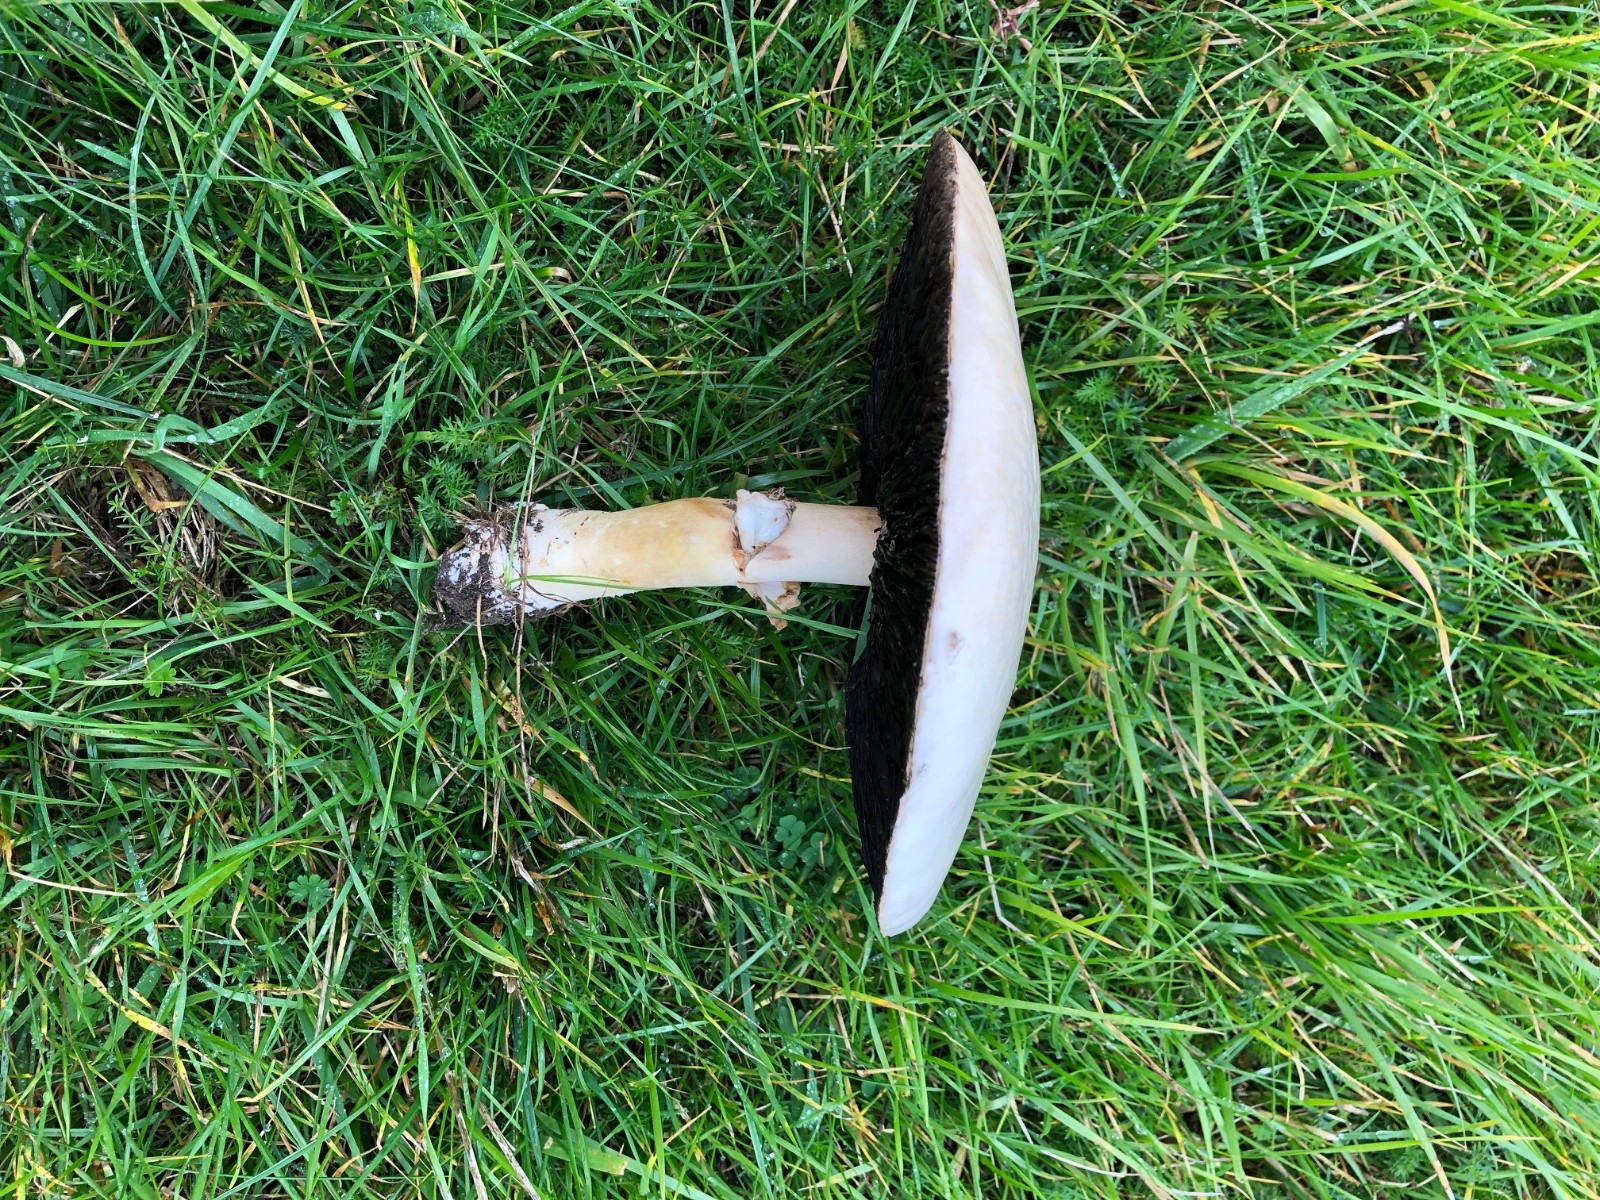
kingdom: Fungi
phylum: Basidiomycota
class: Agaricomycetes
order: Agaricales
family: Agaricaceae
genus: Agaricus
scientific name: Agaricus
